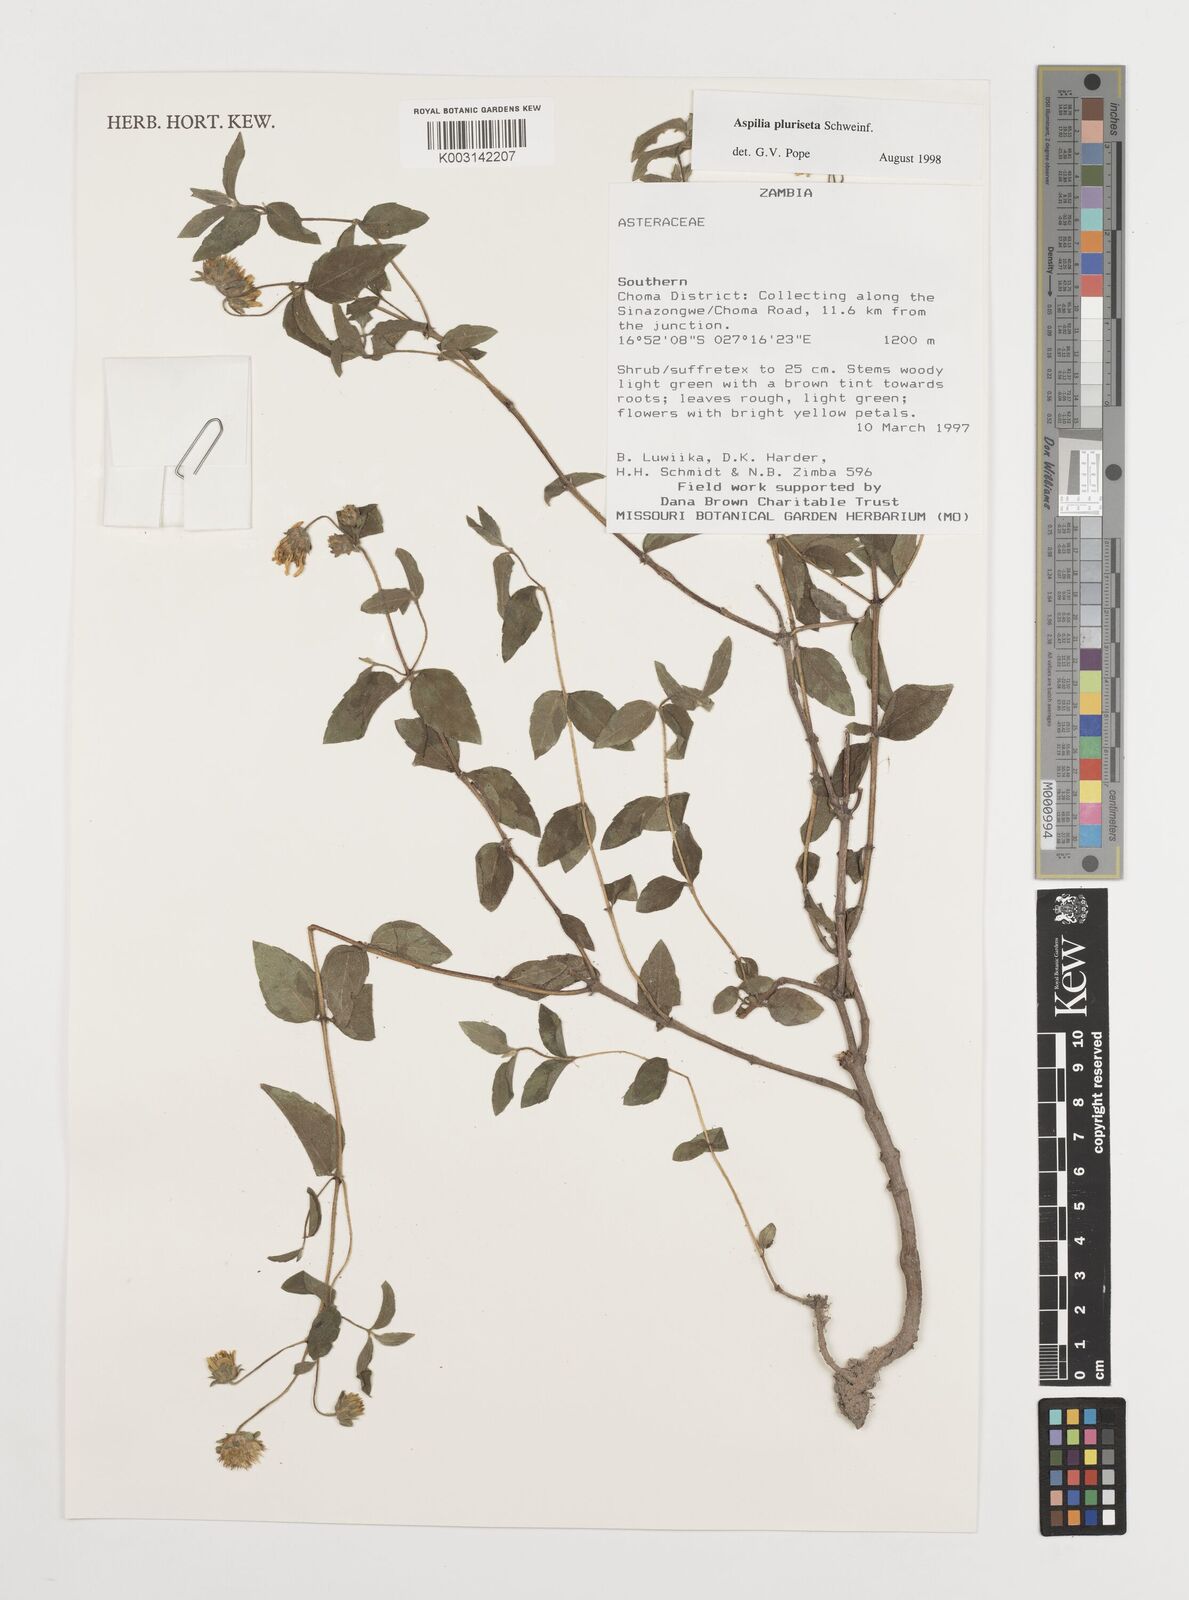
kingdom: Plantae
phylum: Tracheophyta
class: Magnoliopsida
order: Asterales
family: Asteraceae
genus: Aspilia
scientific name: Aspilia pluriseta
